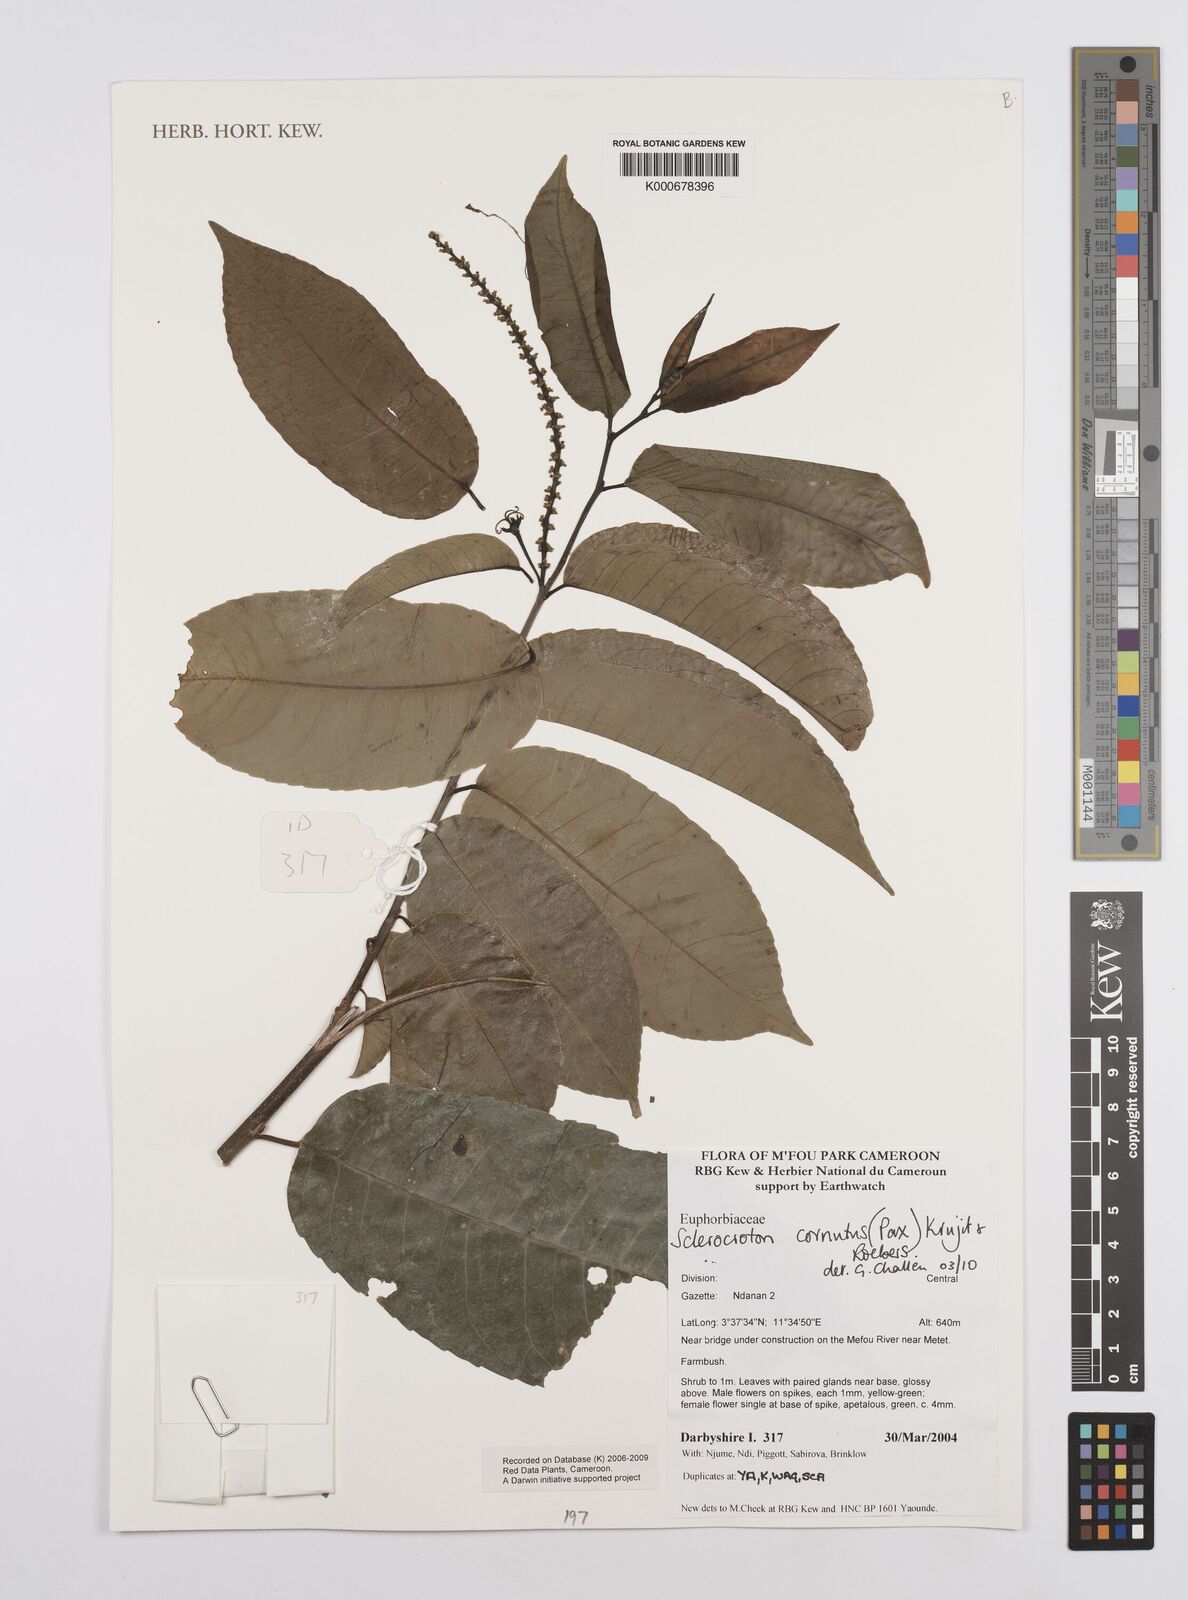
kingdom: Plantae
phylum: Tracheophyta
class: Magnoliopsida
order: Malpighiales
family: Euphorbiaceae
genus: Sclerocroton
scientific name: Sclerocroton cornutus
